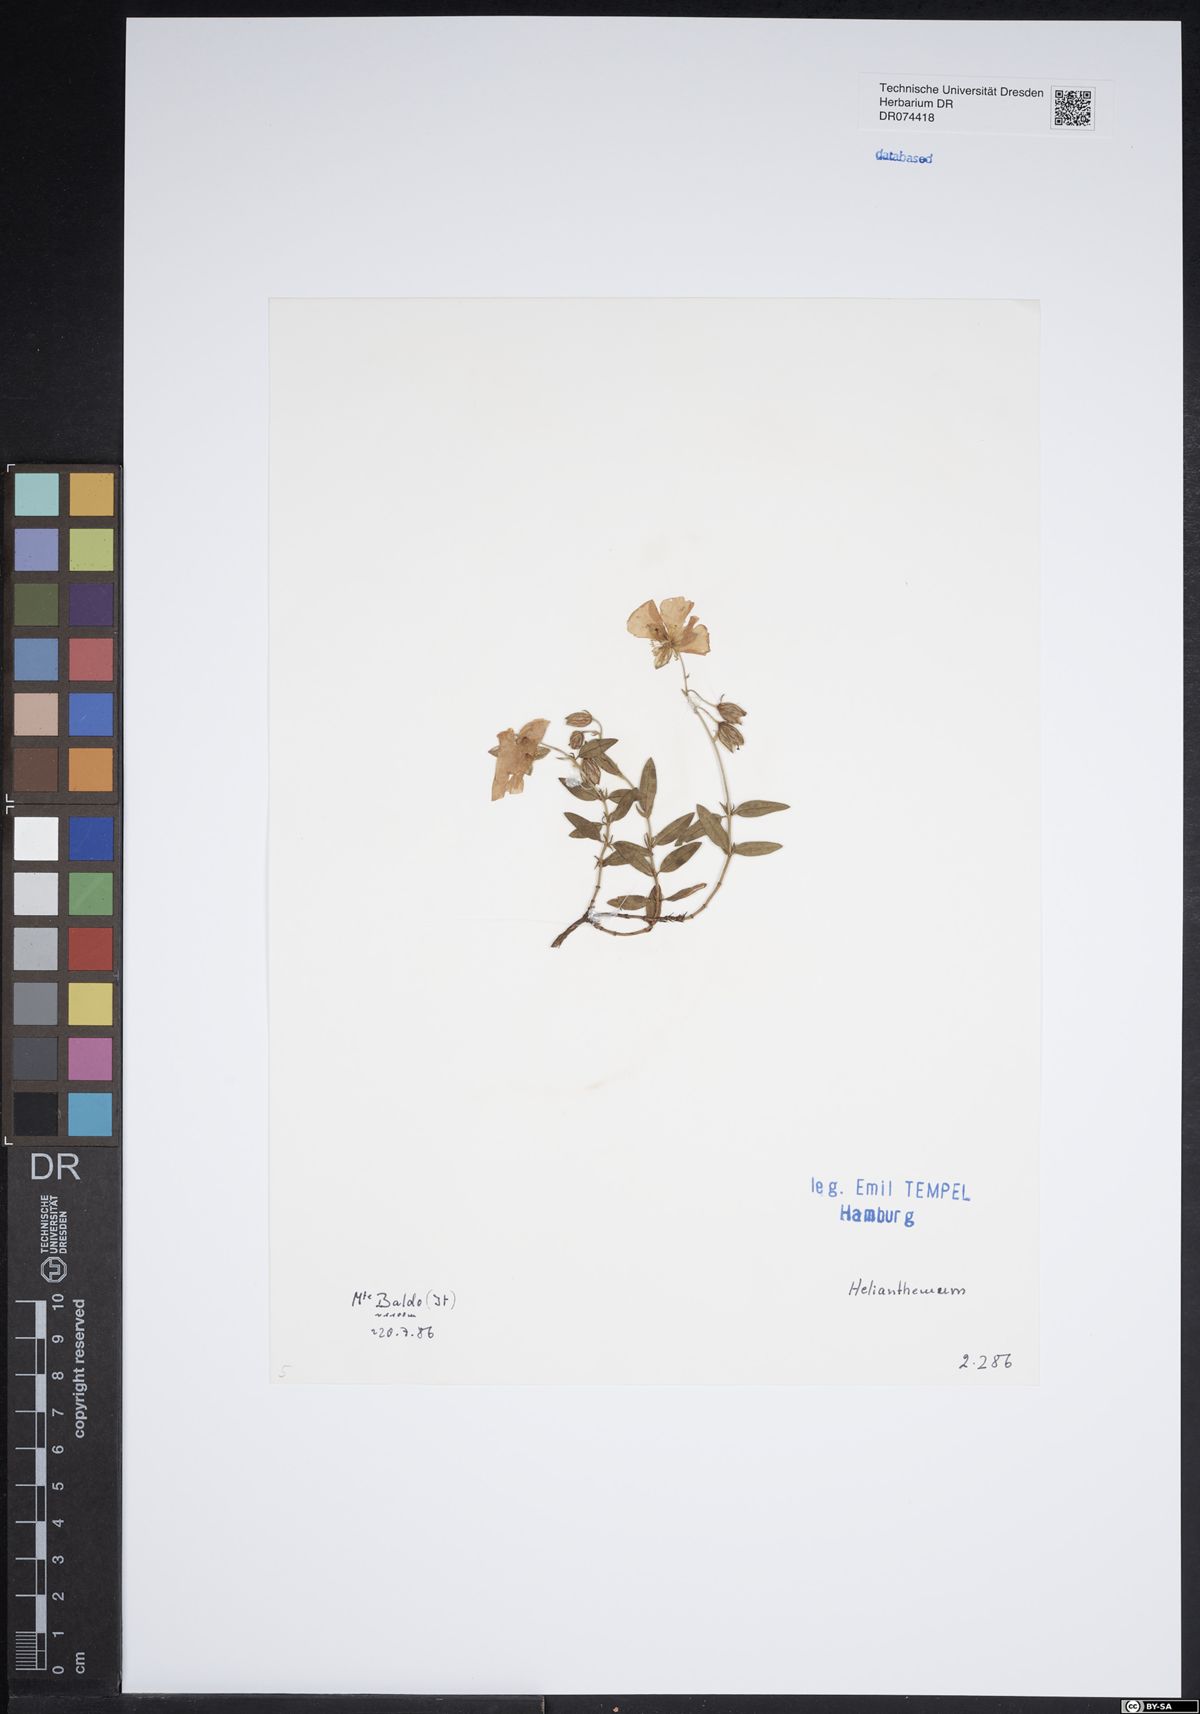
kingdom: Plantae
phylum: Tracheophyta
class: Magnoliopsida
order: Malvales
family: Cistaceae
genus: Helianthemum
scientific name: Helianthemum
